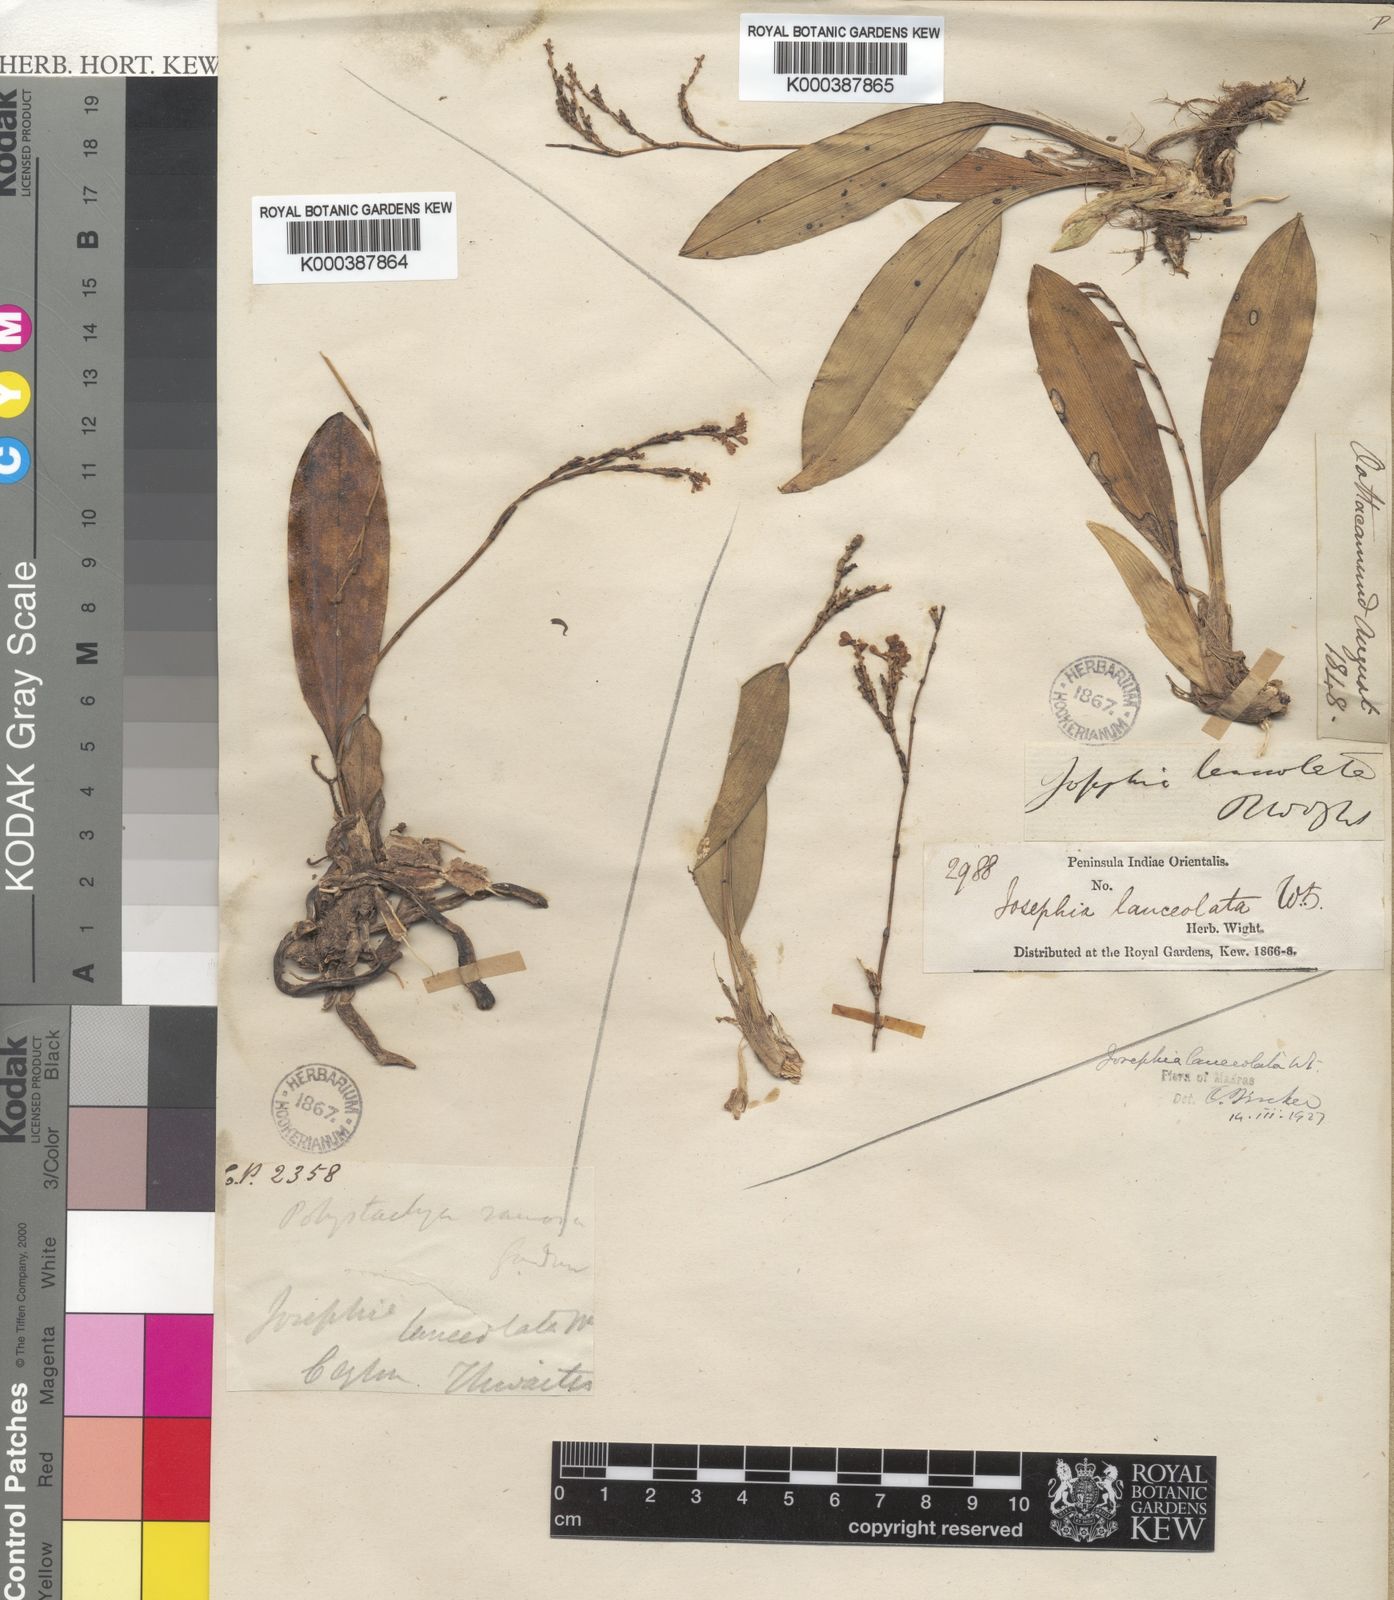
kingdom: Plantae
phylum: Tracheophyta
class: Liliopsida
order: Asparagales
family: Orchidaceae
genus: Sirhookera
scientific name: Sirhookera lanceolata
